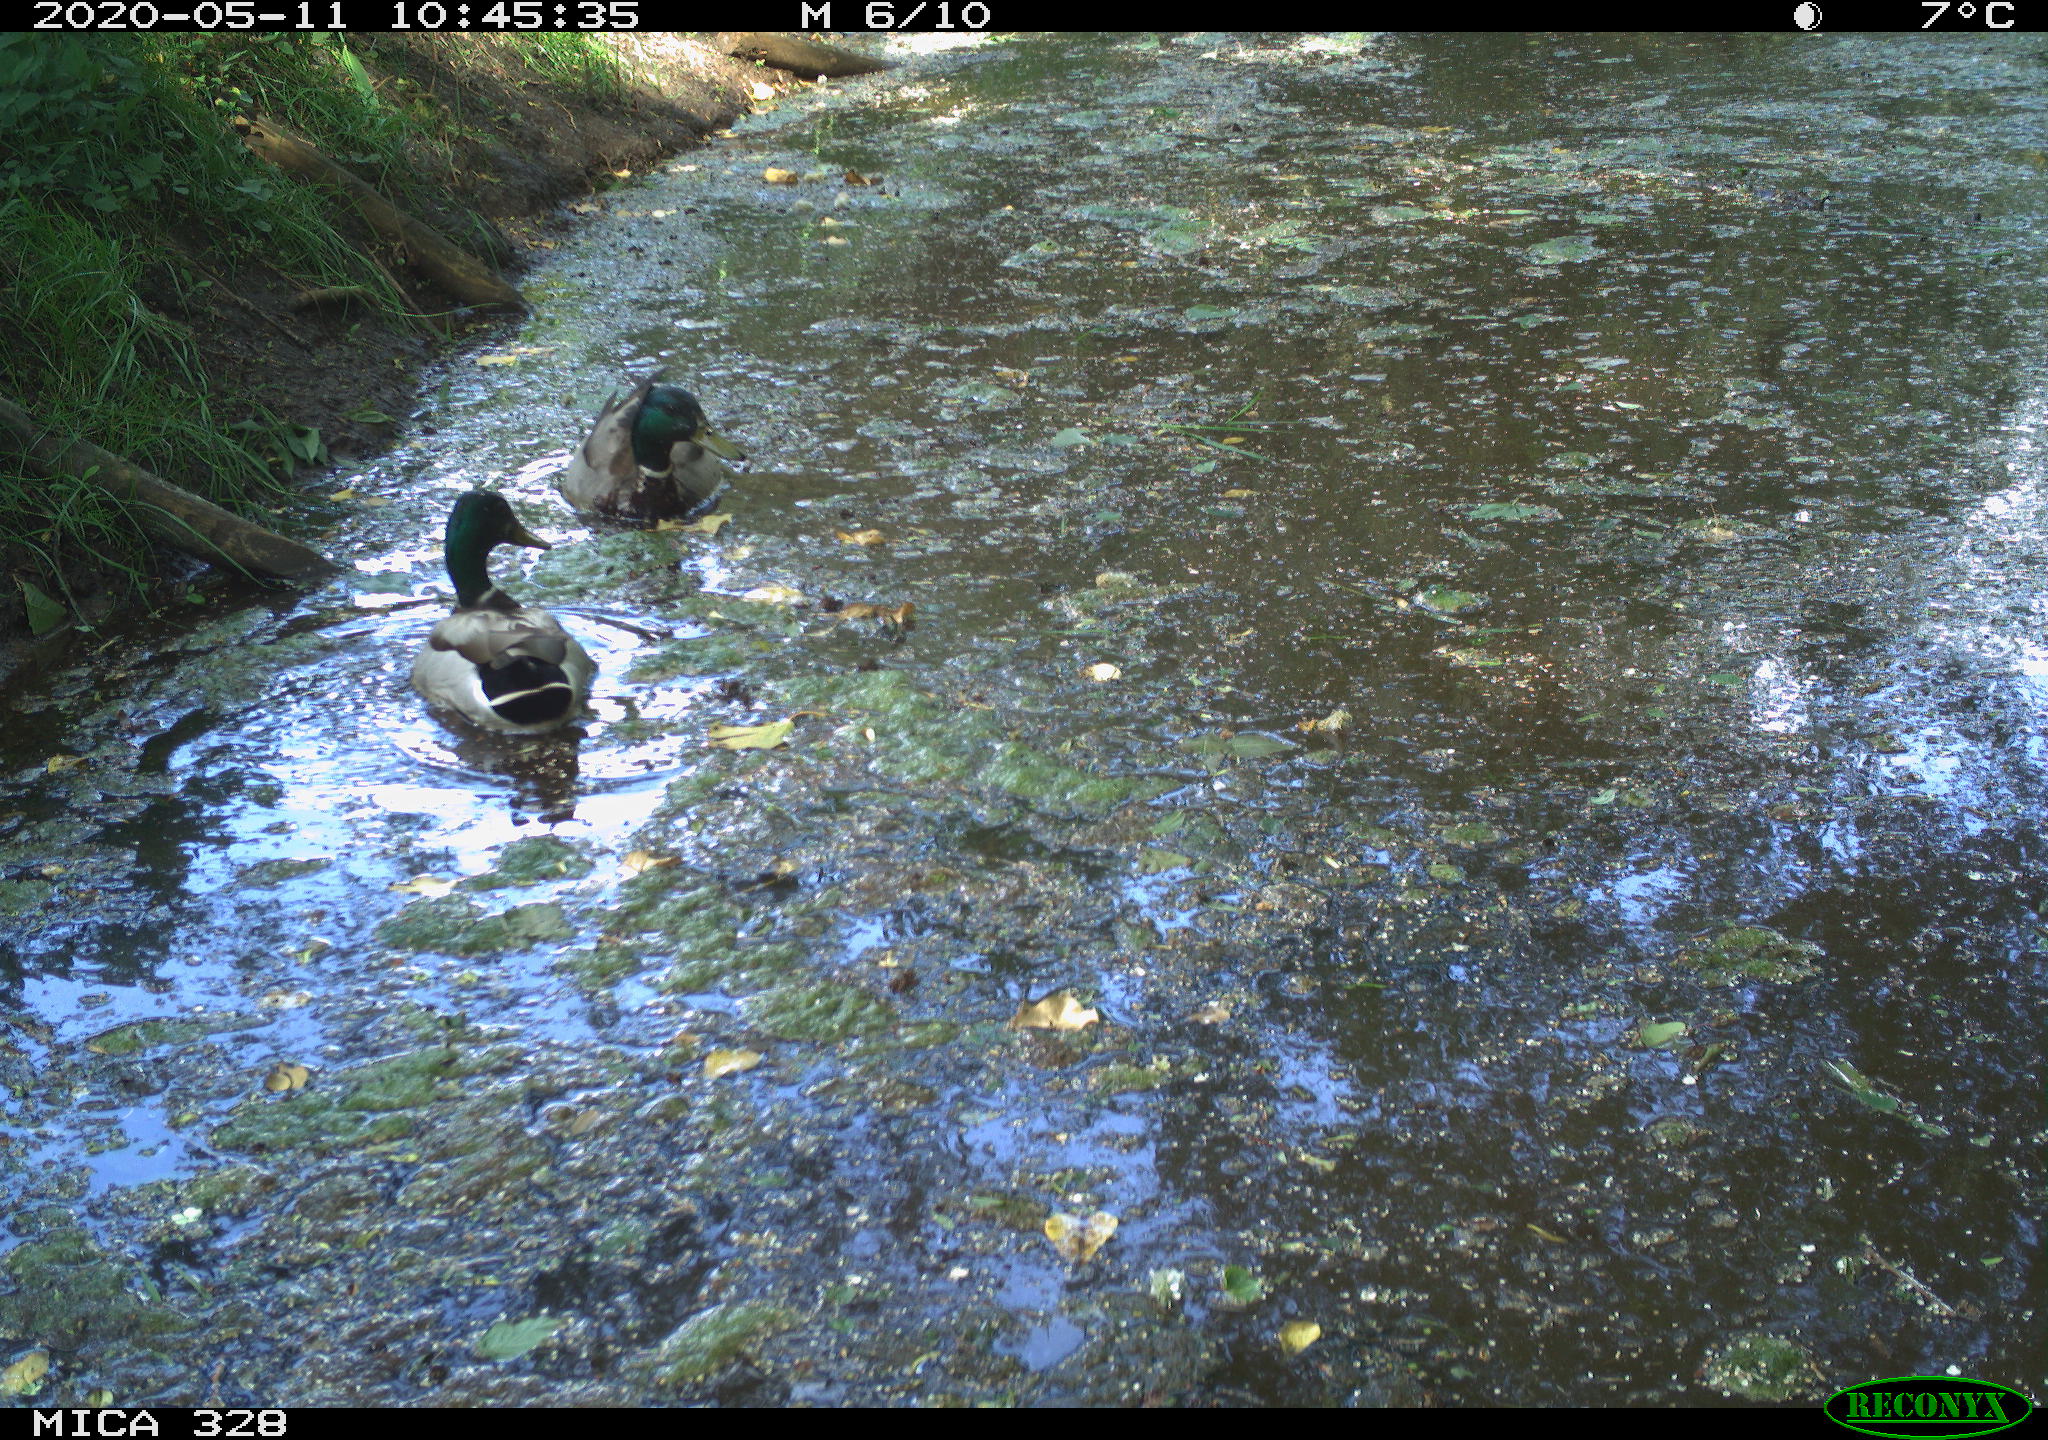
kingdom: Animalia
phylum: Chordata
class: Aves
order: Anseriformes
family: Anatidae
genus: Anas
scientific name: Anas platyrhynchos
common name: Mallard
